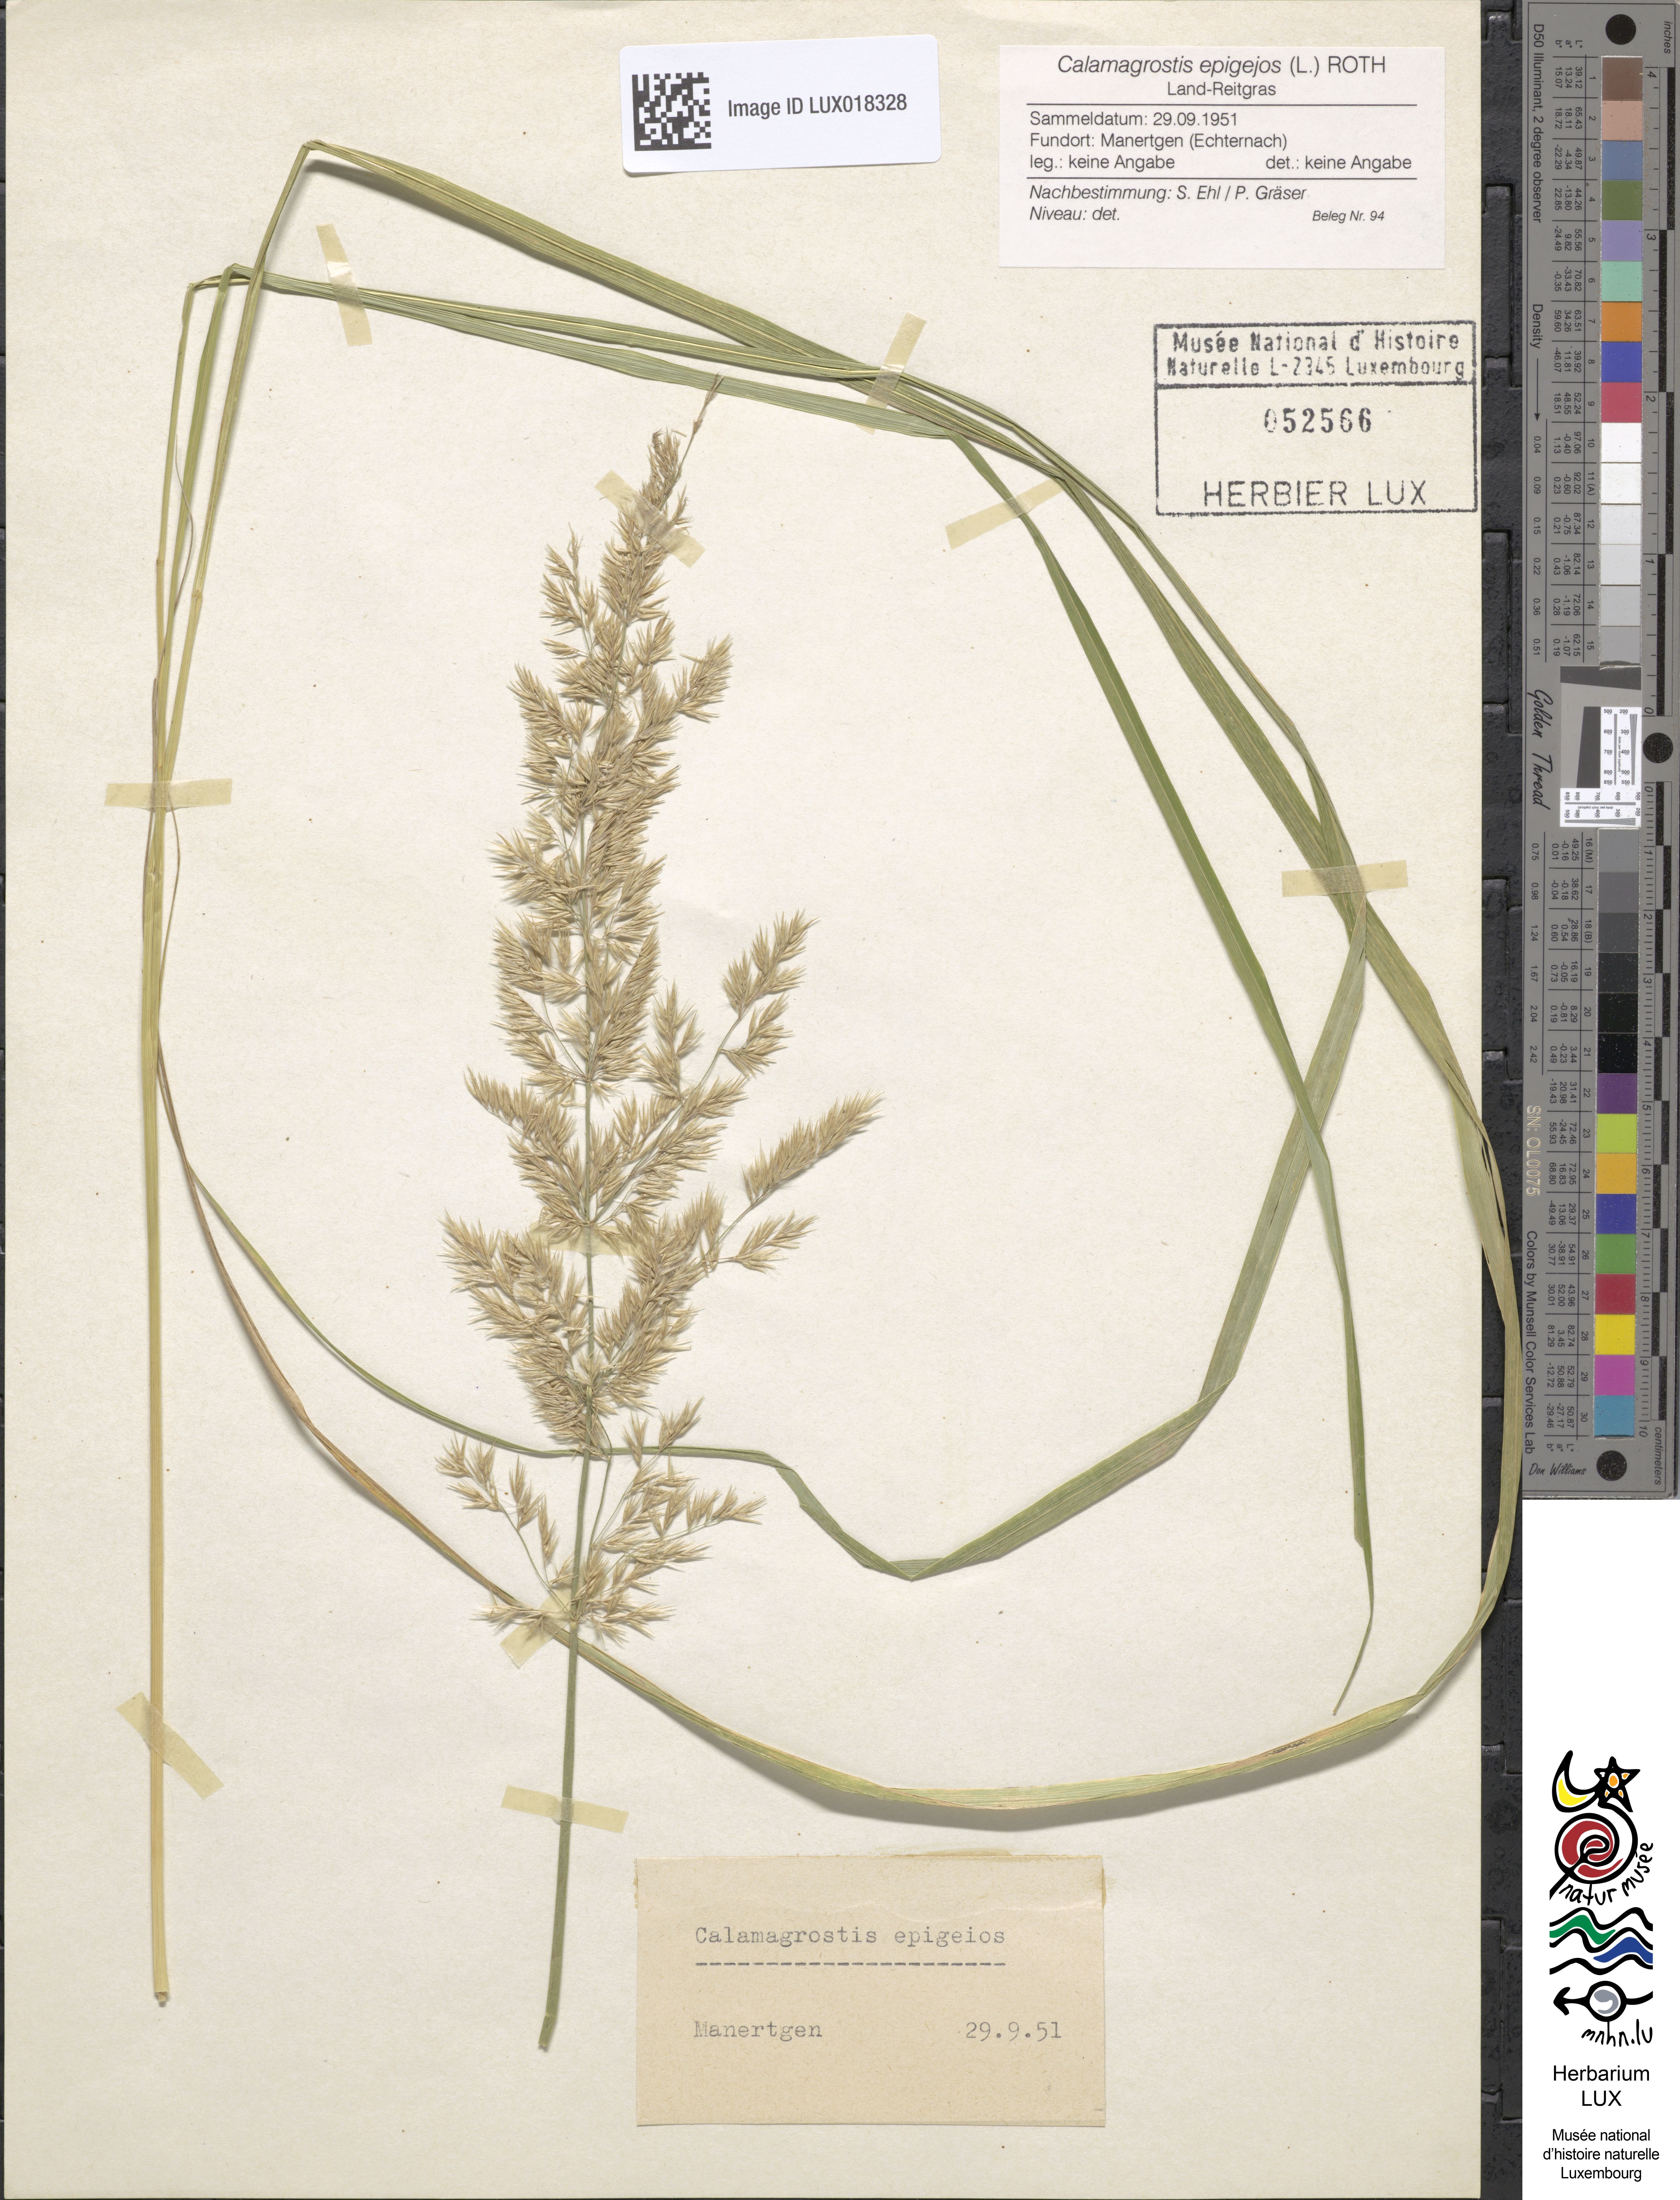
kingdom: Plantae
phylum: Tracheophyta
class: Liliopsida
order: Poales
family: Poaceae
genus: Calamagrostis
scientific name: Calamagrostis epigejos
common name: Wood small-reed
